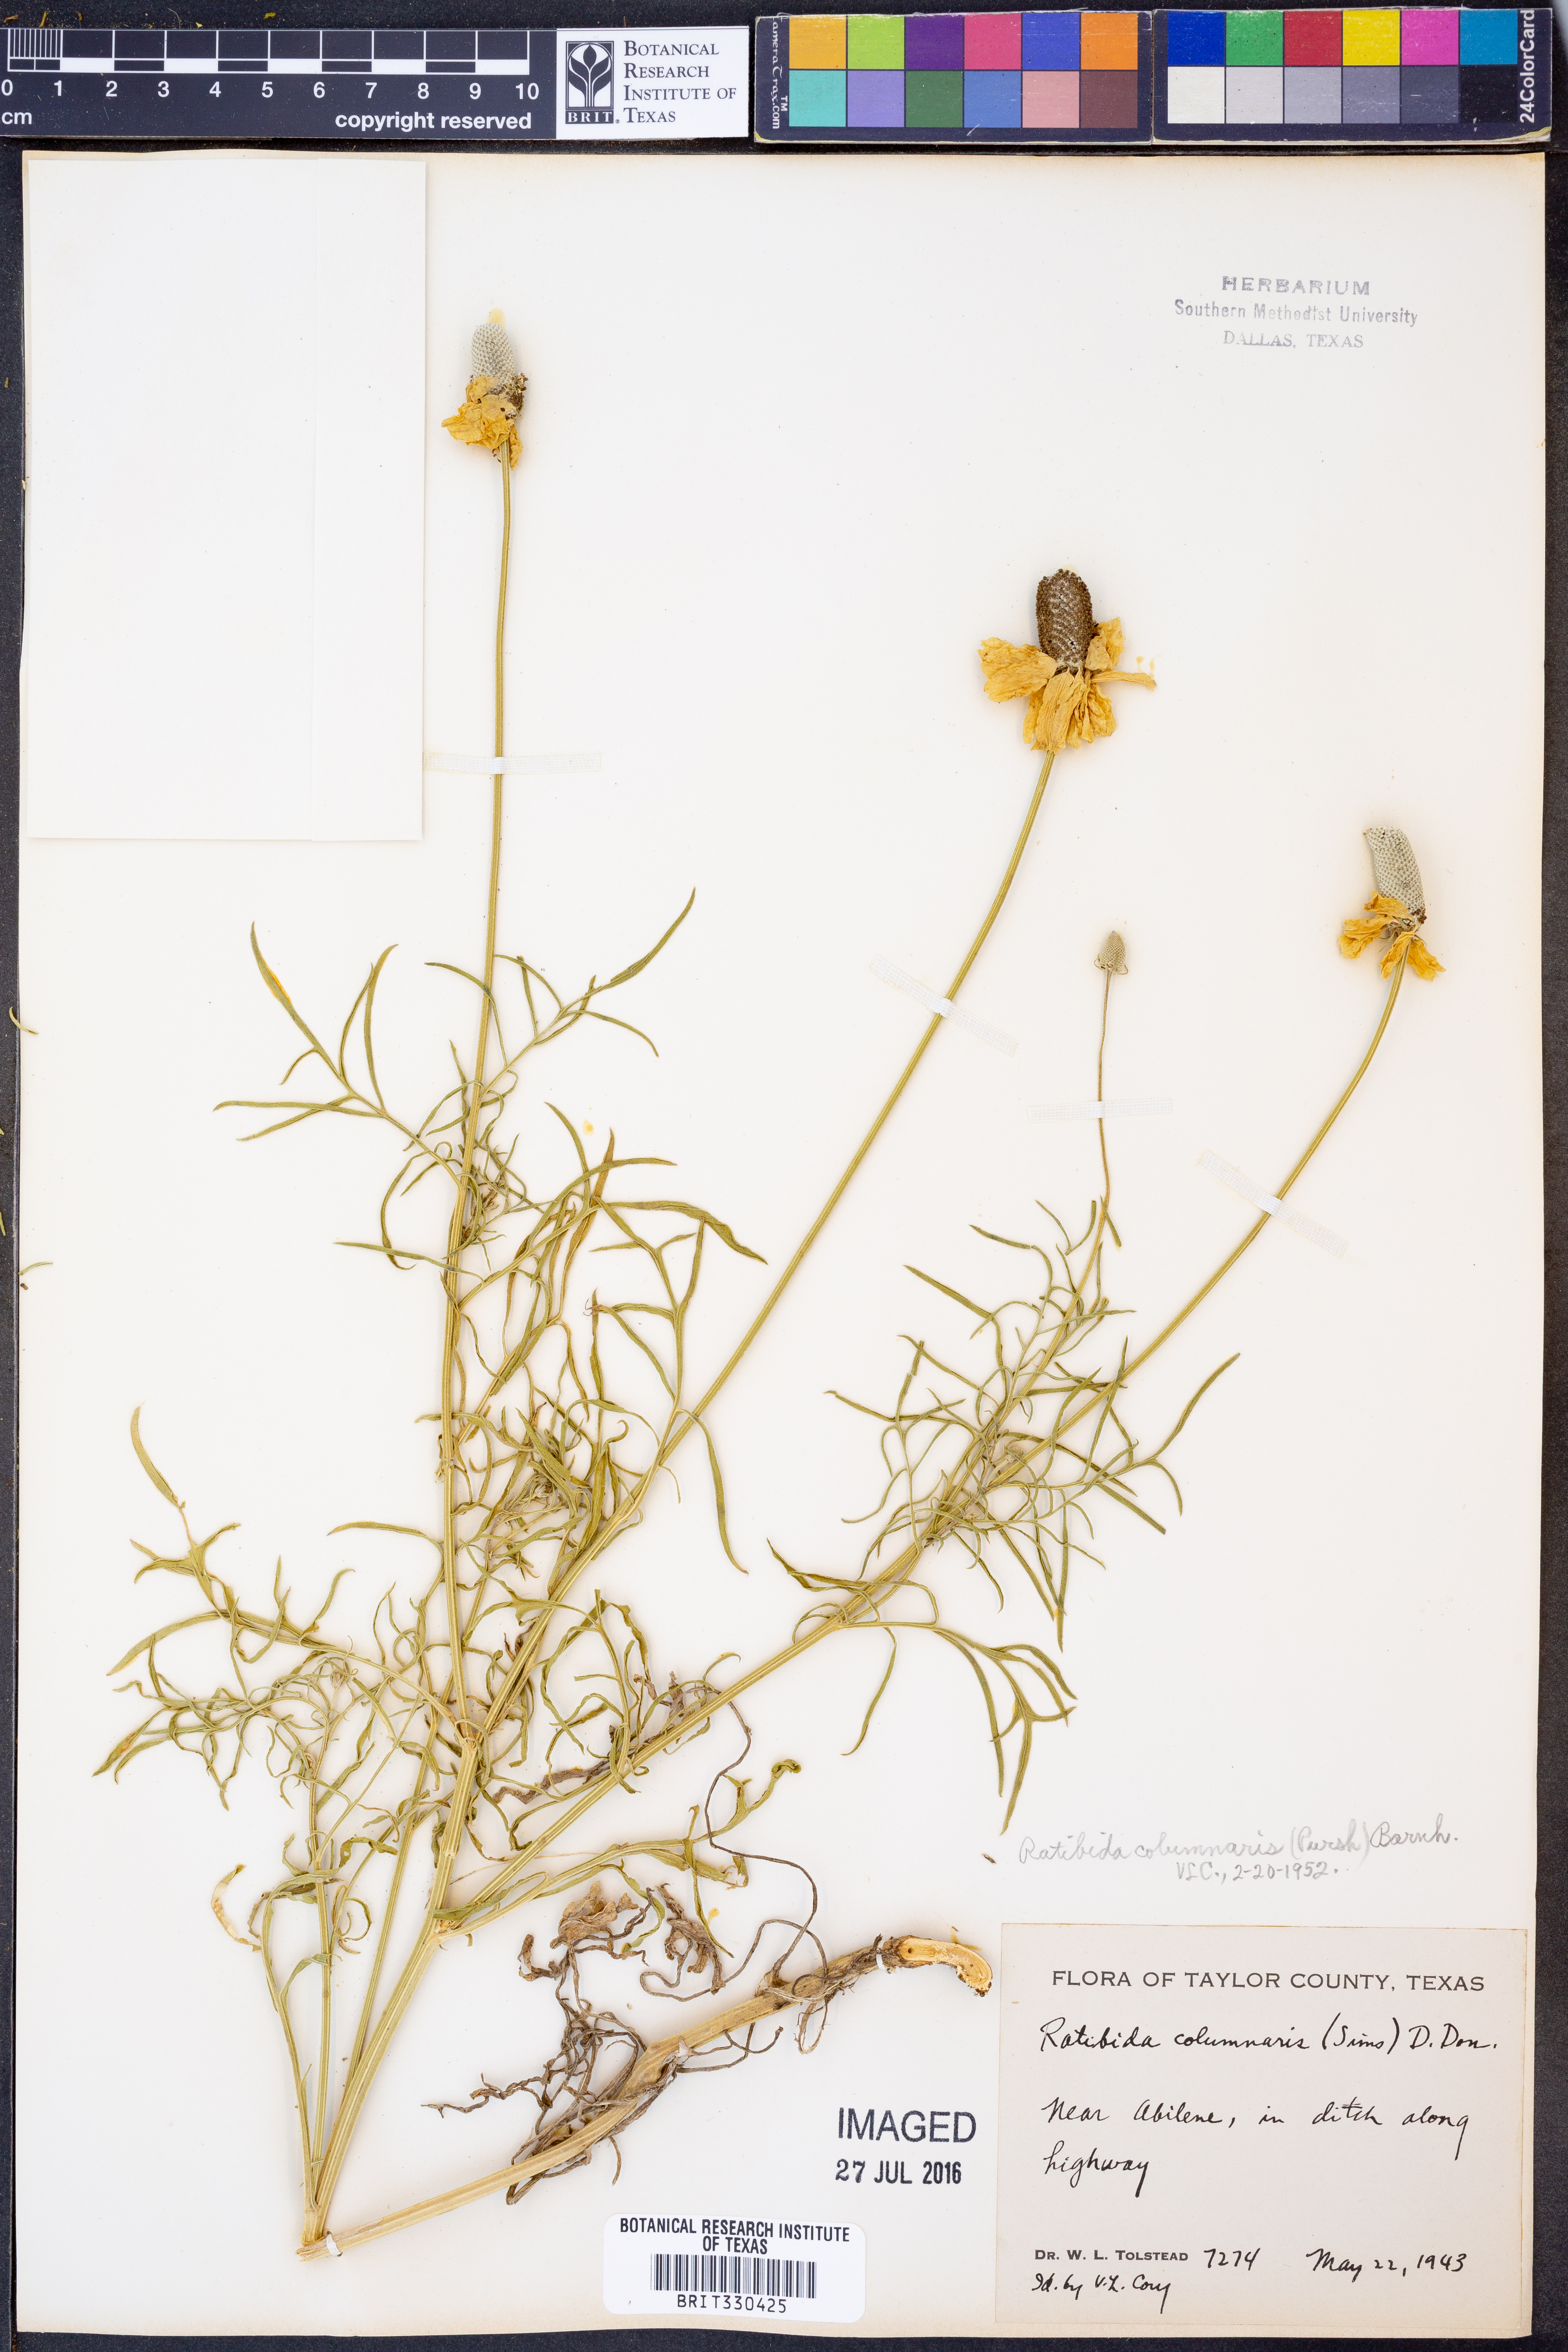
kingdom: Plantae
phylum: Tracheophyta
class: Magnoliopsida
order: Asterales
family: Asteraceae
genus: Ratibida
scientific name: Ratibida columnifera
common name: Prairie coneflower
